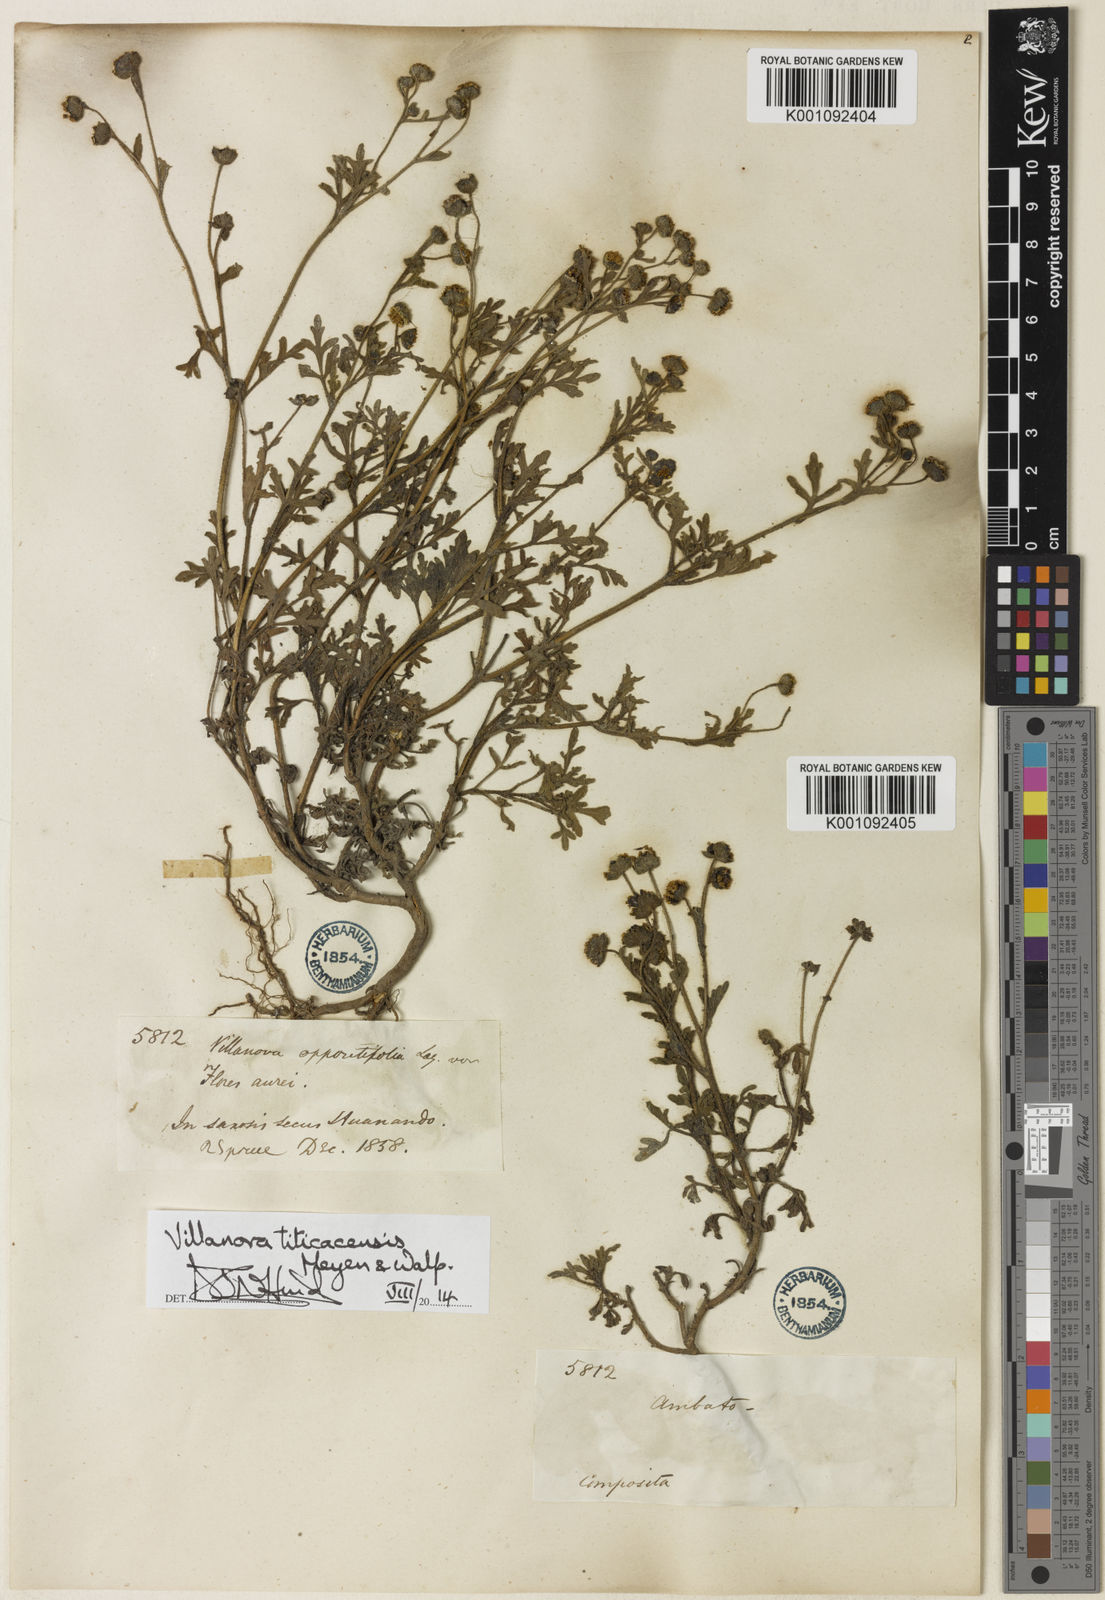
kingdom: Plantae
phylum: Tracheophyta
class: Magnoliopsida
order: Asterales
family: Asteraceae
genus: Villanova
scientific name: Villanova titicacensis
